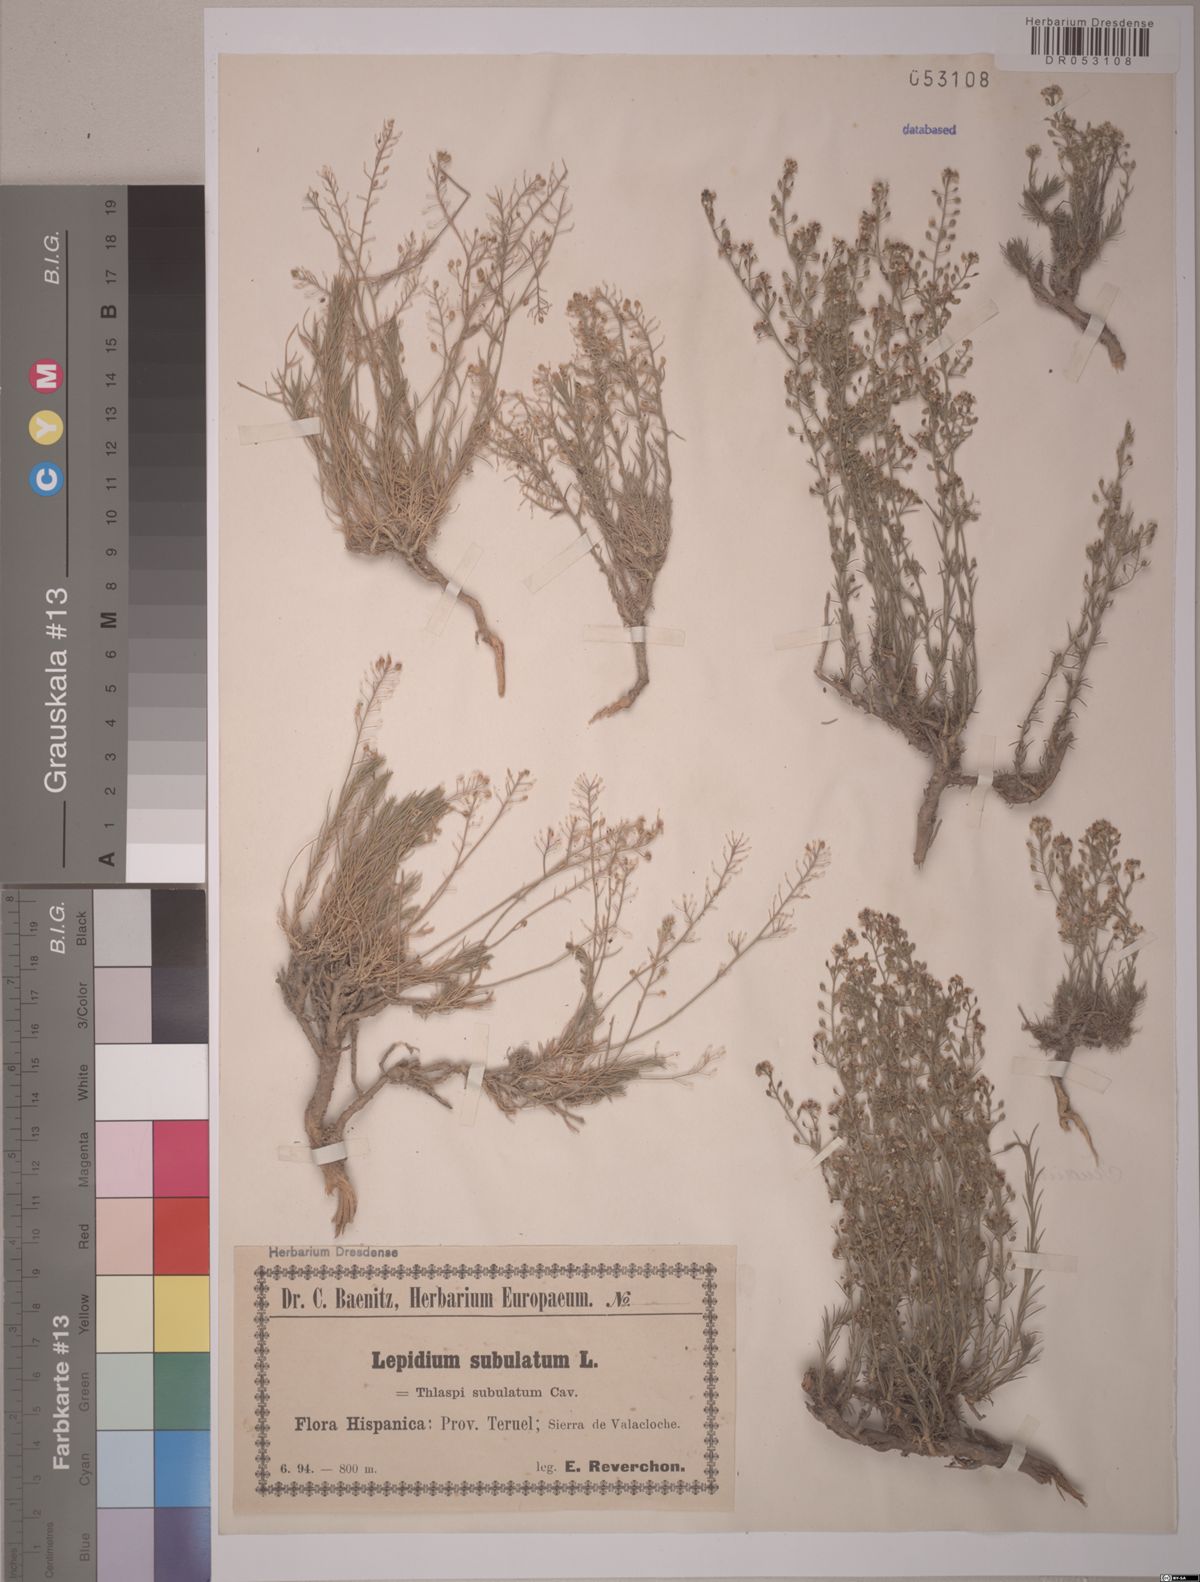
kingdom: Plantae
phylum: Tracheophyta
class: Magnoliopsida
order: Brassicales
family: Brassicaceae
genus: Lepidium
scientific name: Lepidium subulatum
